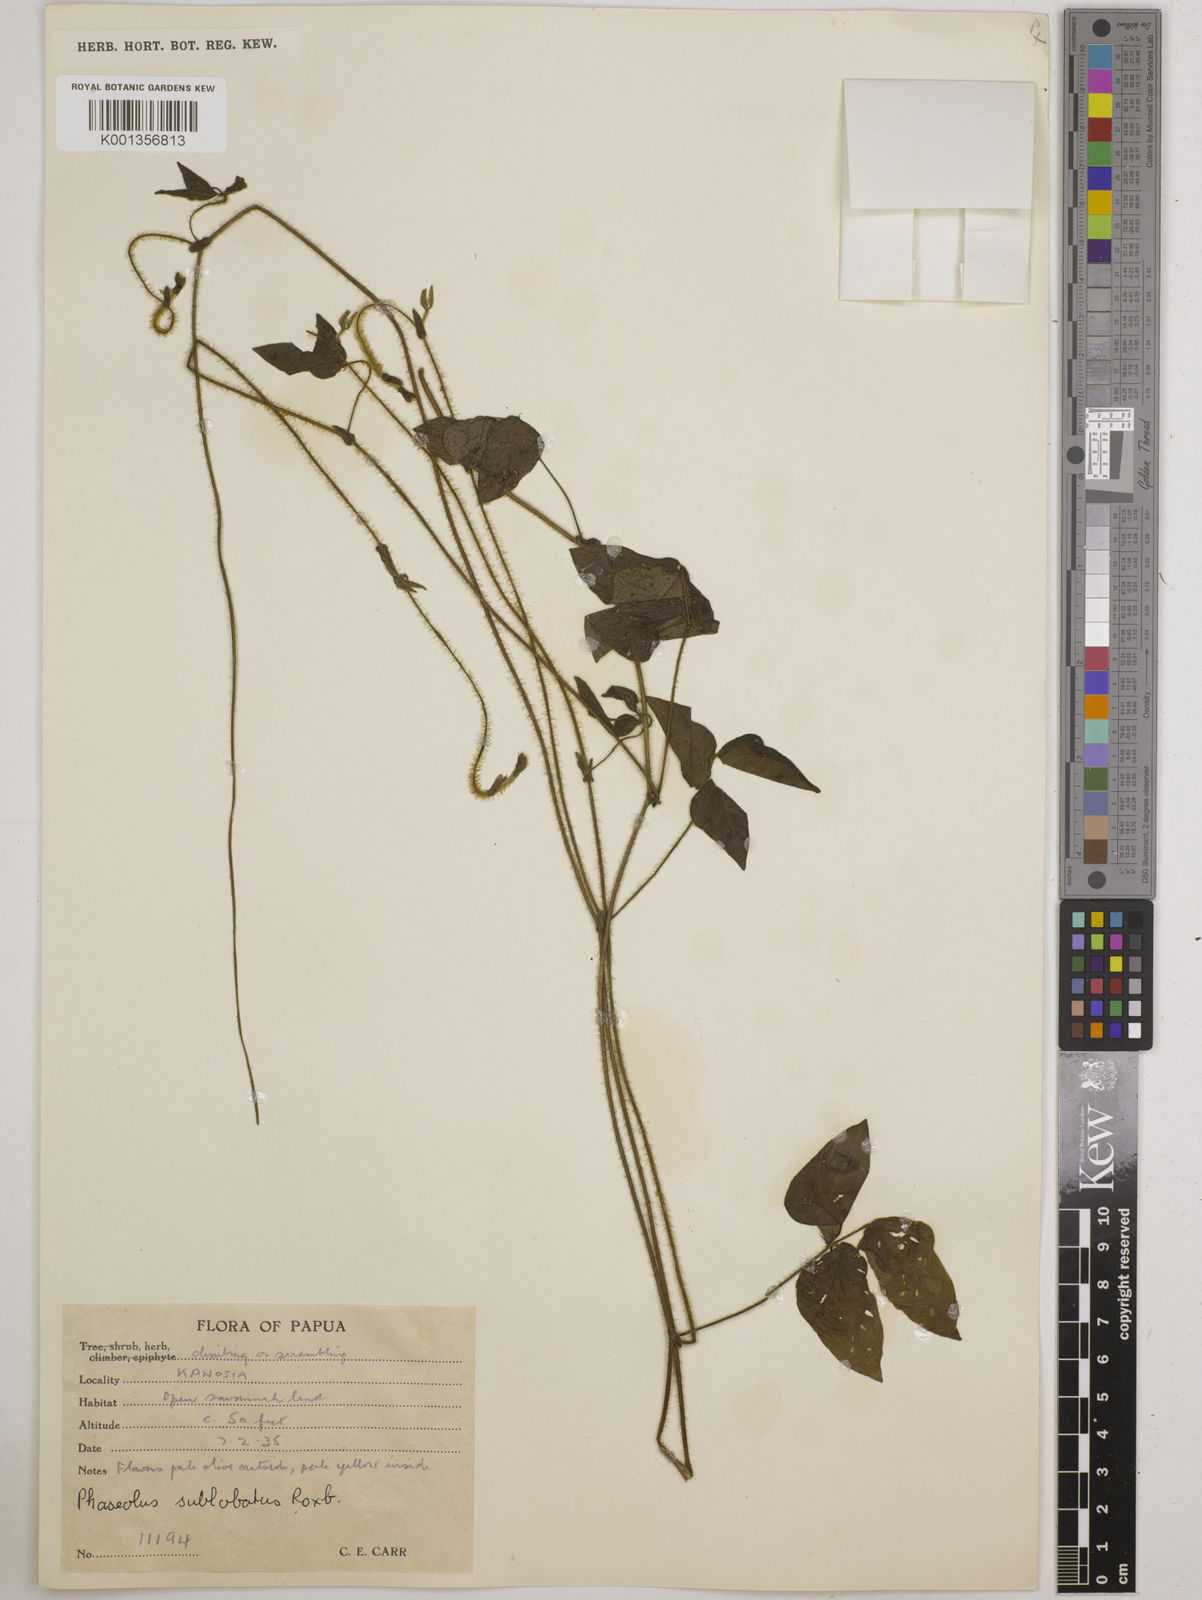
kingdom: Plantae
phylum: Tracheophyta
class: Magnoliopsida
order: Fabales
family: Fabaceae
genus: Vigna
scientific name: Vigna radiata
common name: Mung-bean
